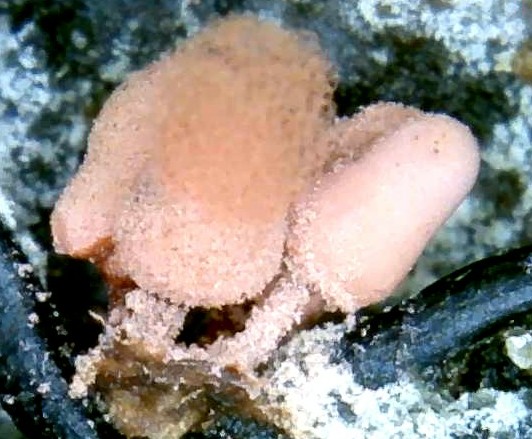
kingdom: Protozoa
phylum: Mycetozoa
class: Myxomycetes
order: Trichiales
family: Arcyriaceae
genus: Arcyria
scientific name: Arcyria denudata
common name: karminrød skålsvøb
